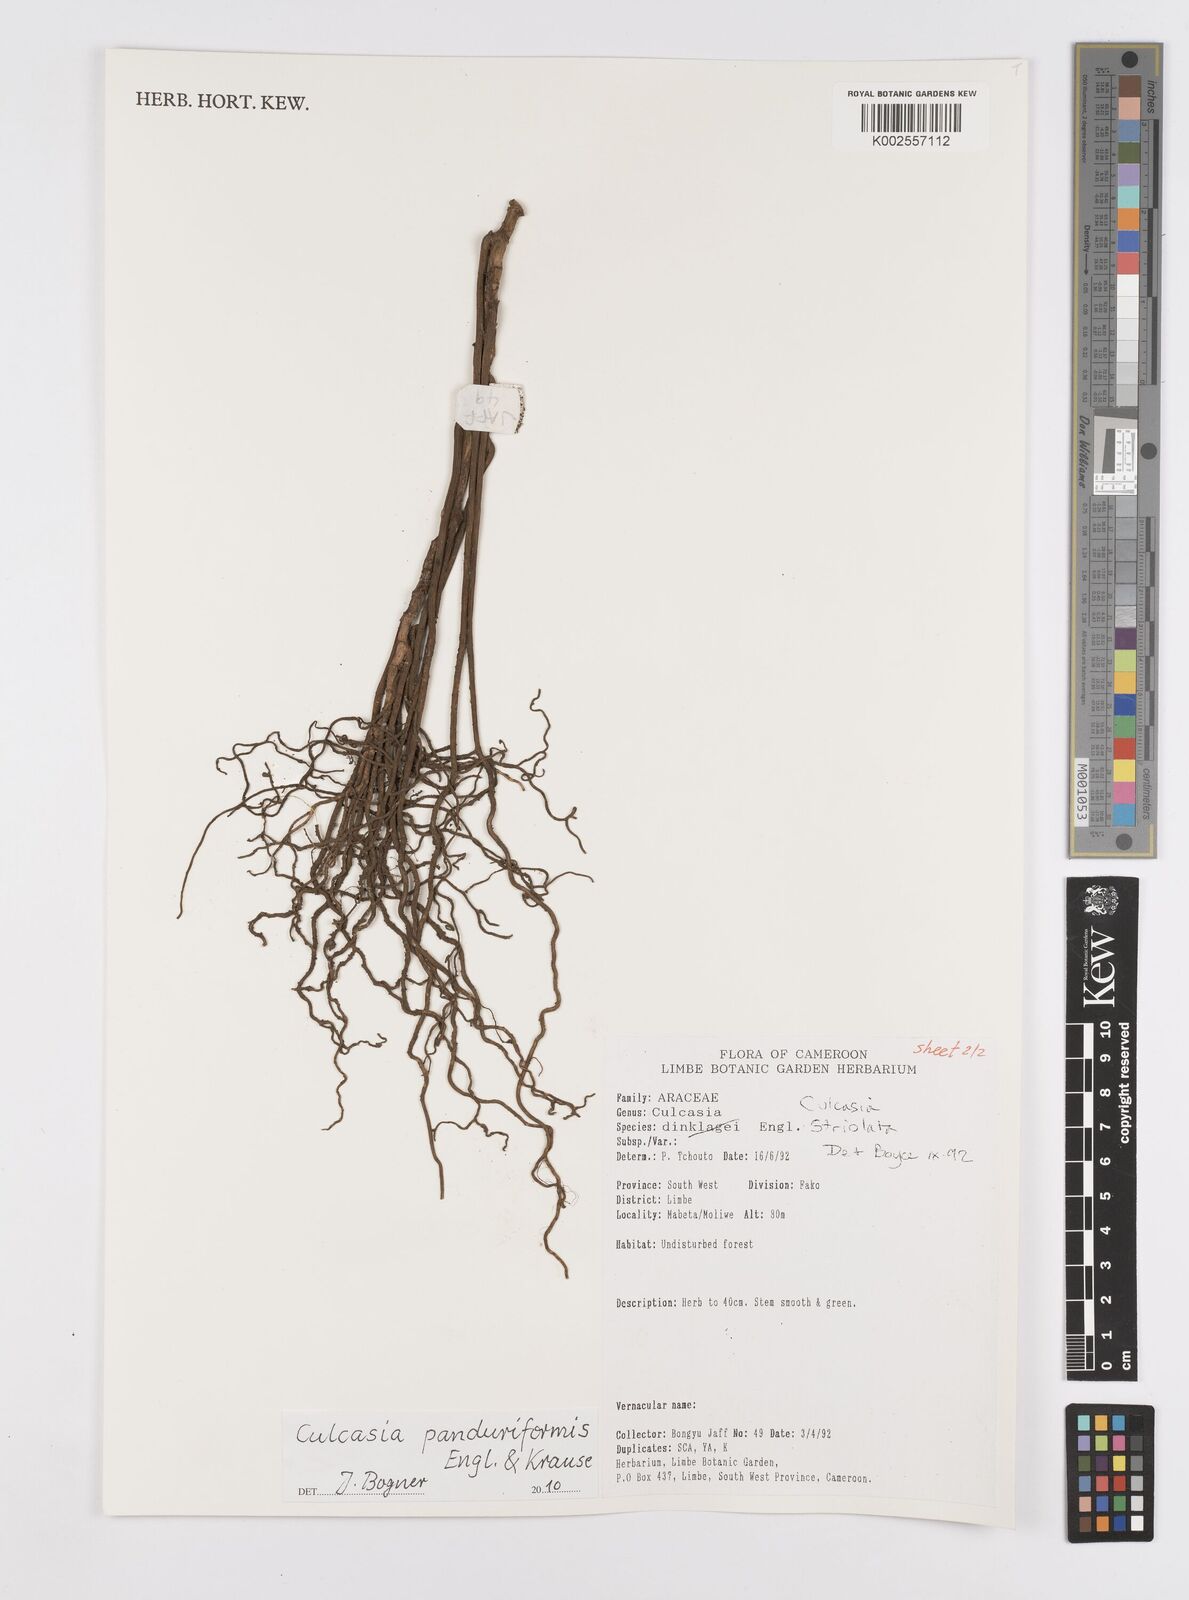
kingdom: Plantae
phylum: Tracheophyta
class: Liliopsida
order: Alismatales
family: Araceae
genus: Culcasia
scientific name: Culcasia panduriformis
